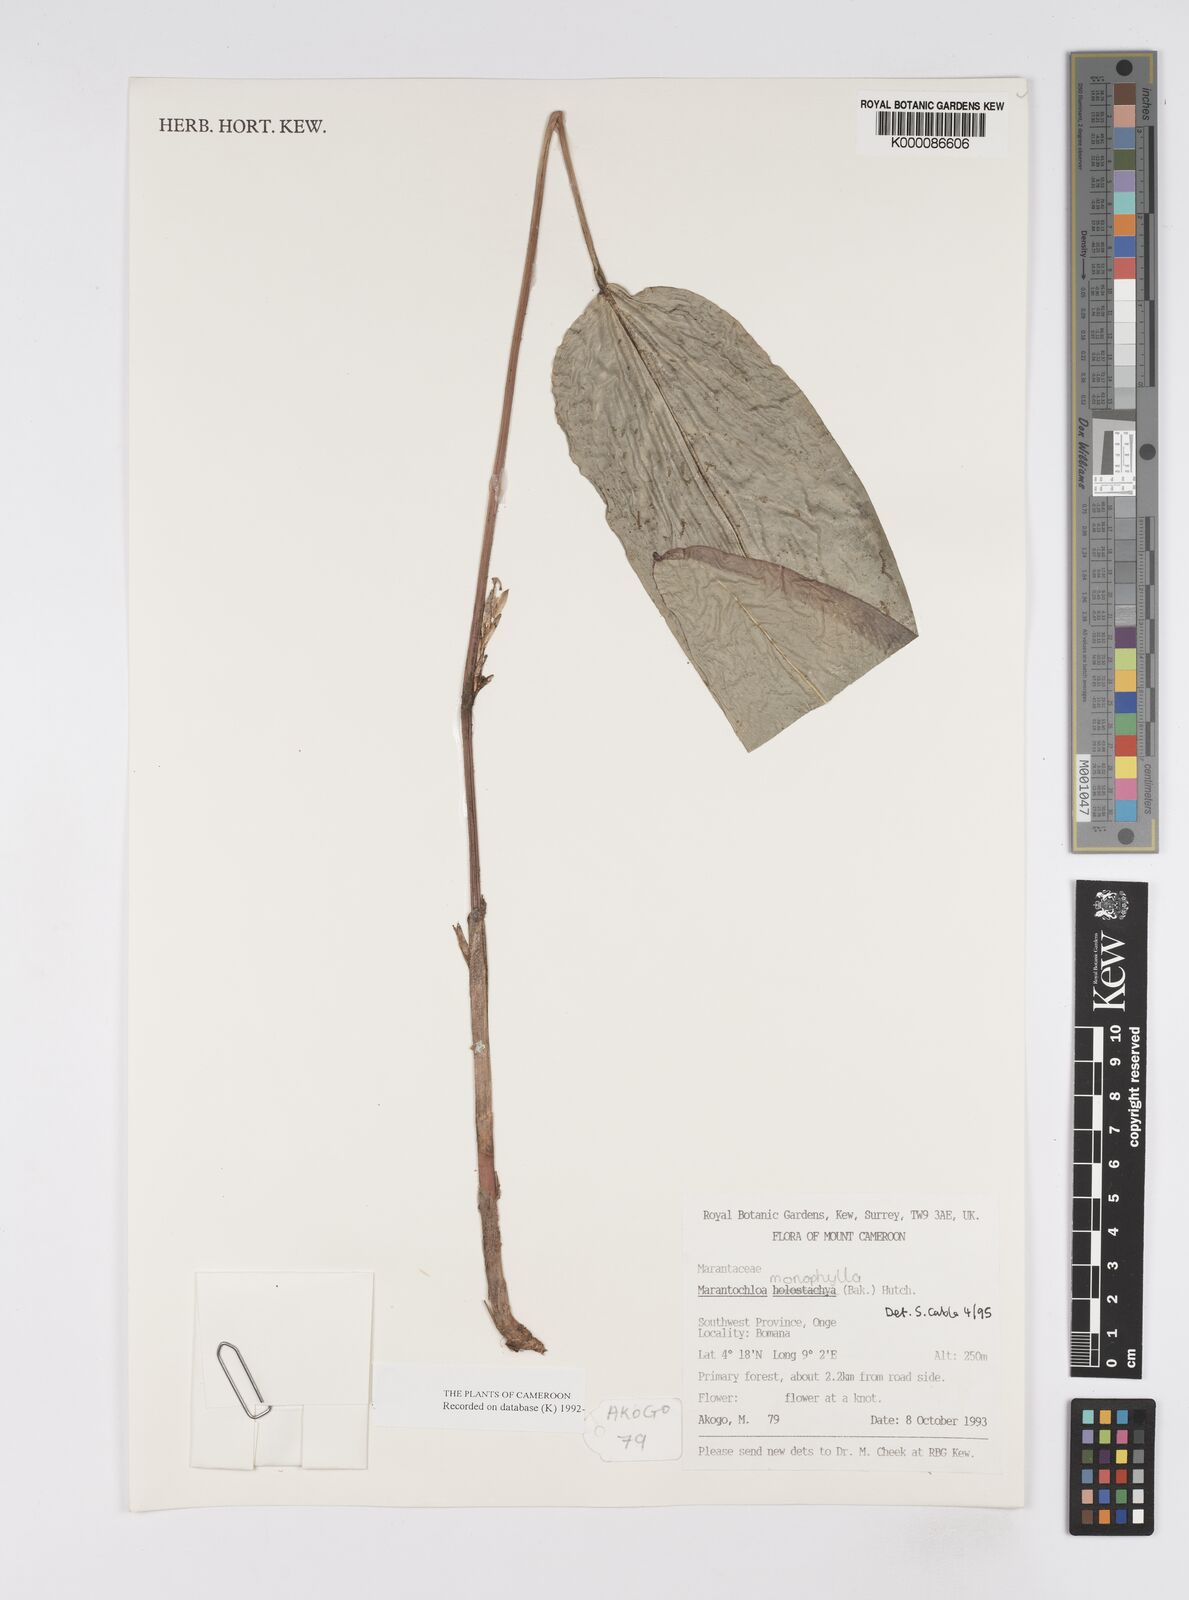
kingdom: Plantae
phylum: Tracheophyta
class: Liliopsida
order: Zingiberales
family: Marantaceae
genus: Marantochloa
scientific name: Marantochloa monophylla
